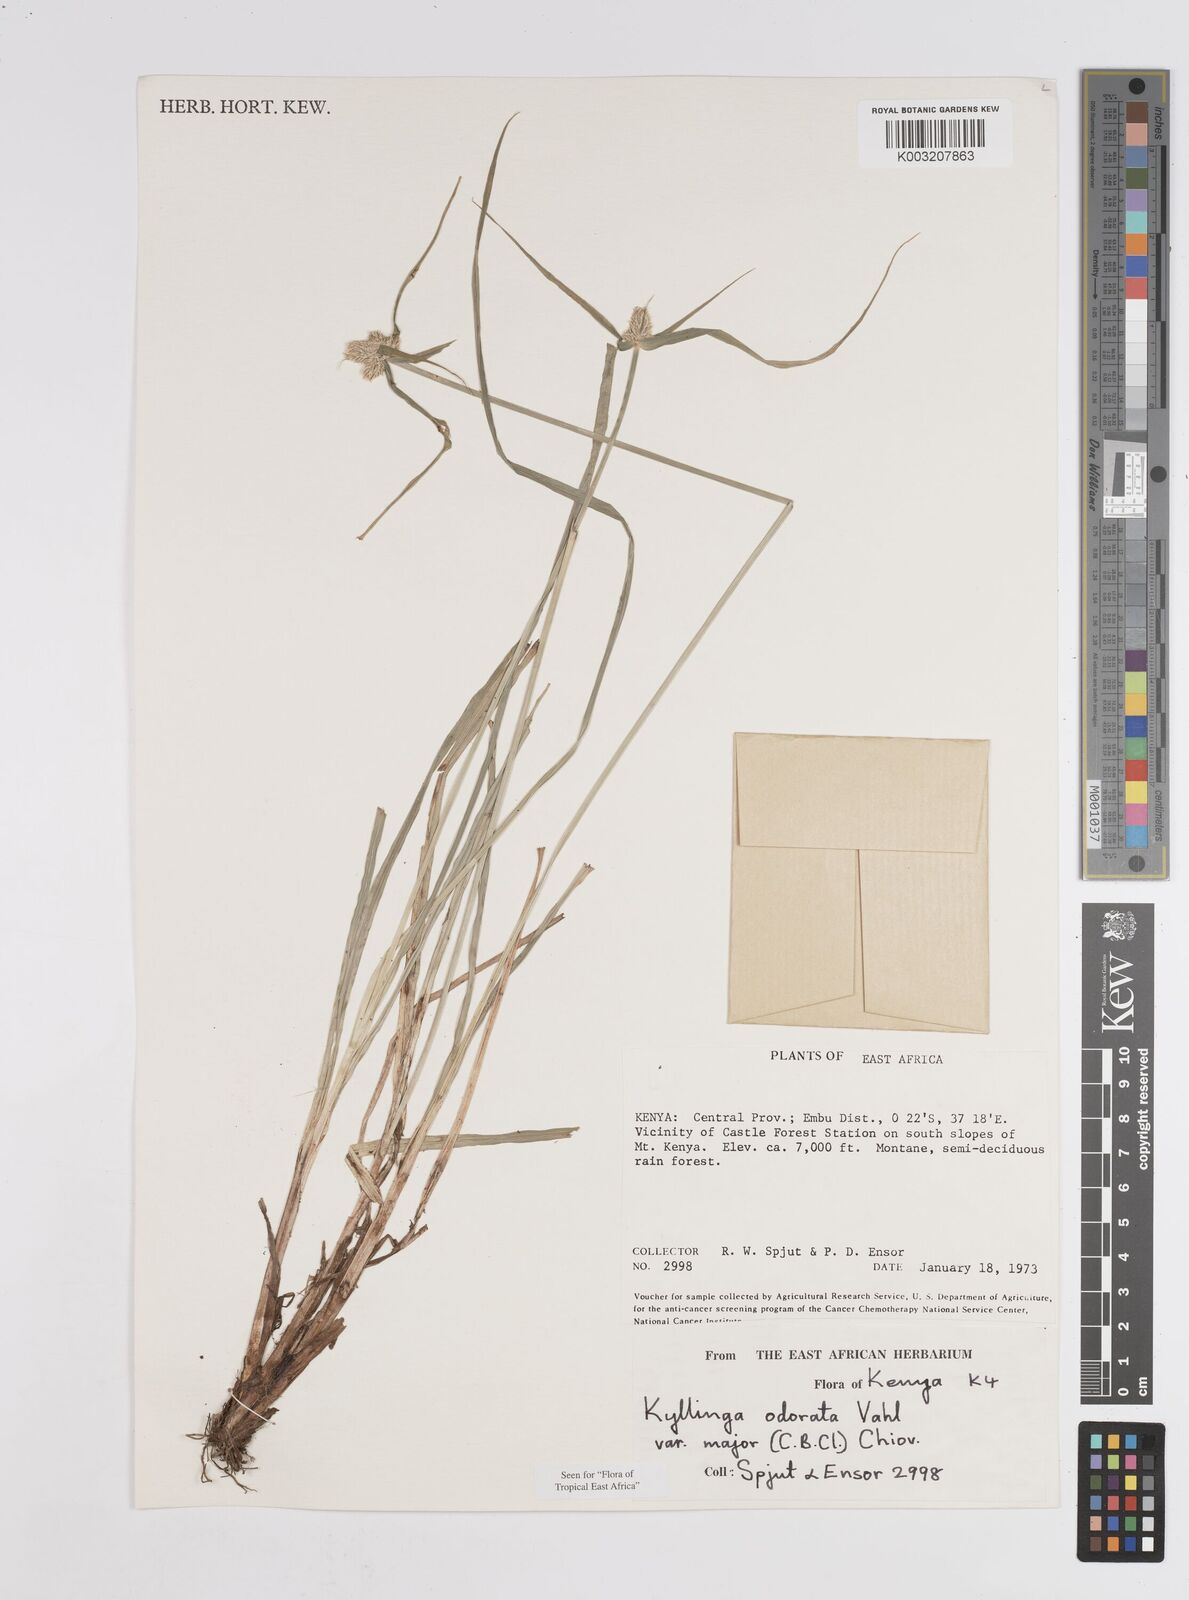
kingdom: Plantae
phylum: Tracheophyta
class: Liliopsida
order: Poales
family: Cyperaceae
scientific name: Cyperaceae
